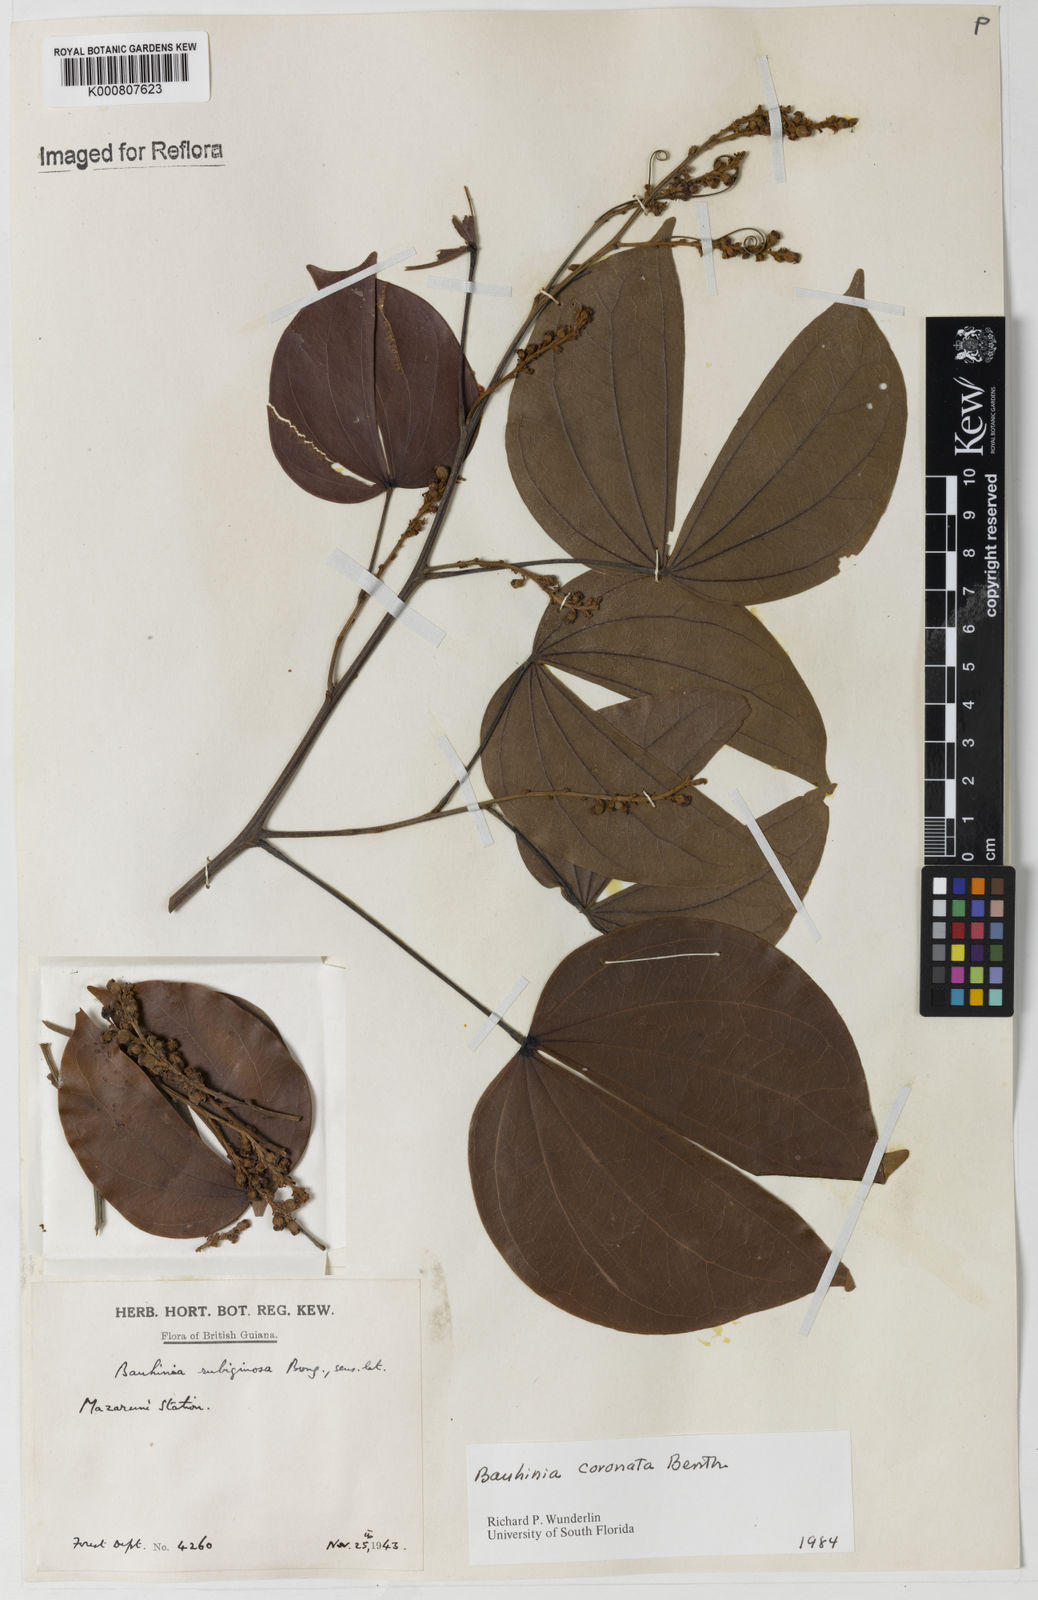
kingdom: Plantae
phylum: Tracheophyta
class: Magnoliopsida
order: Fabales
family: Fabaceae
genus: Schnella
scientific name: Schnella outimouta
